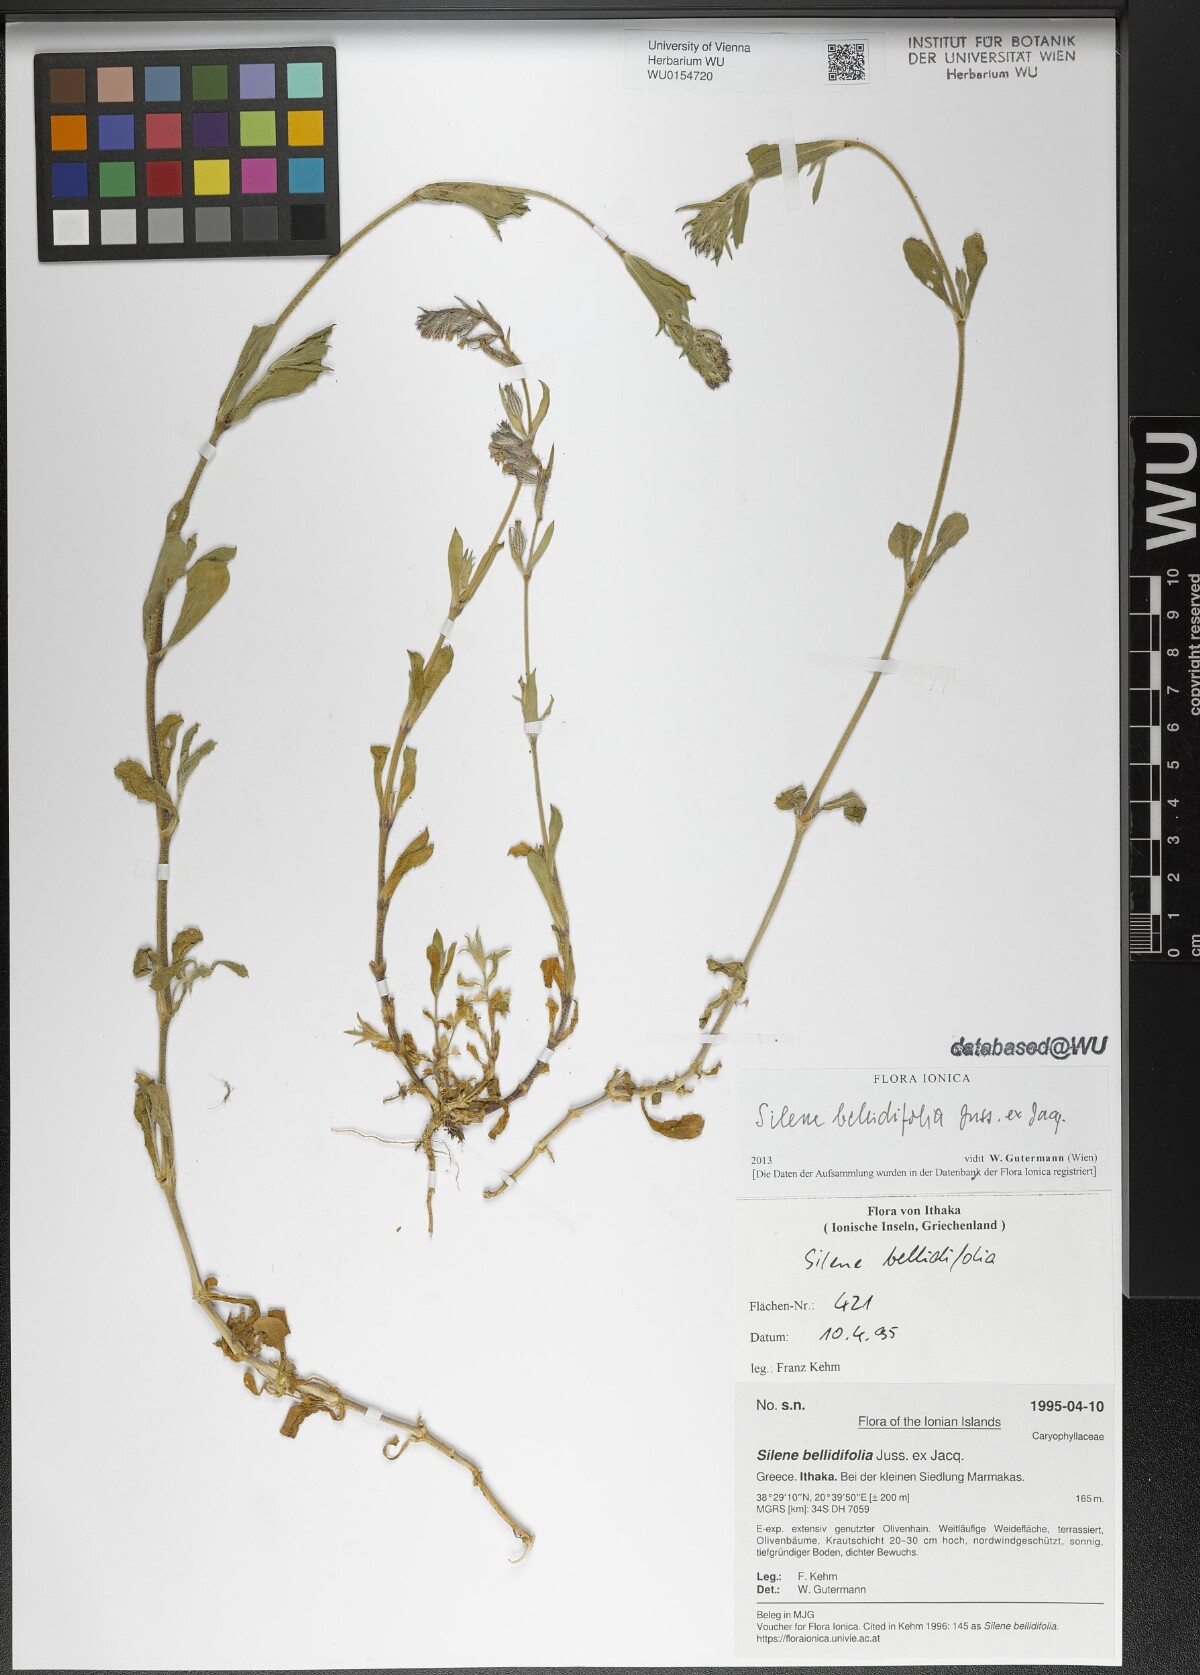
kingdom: Plantae
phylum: Tracheophyta
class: Magnoliopsida
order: Caryophyllales
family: Caryophyllaceae
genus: Silene
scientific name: Silene bellidifolia
